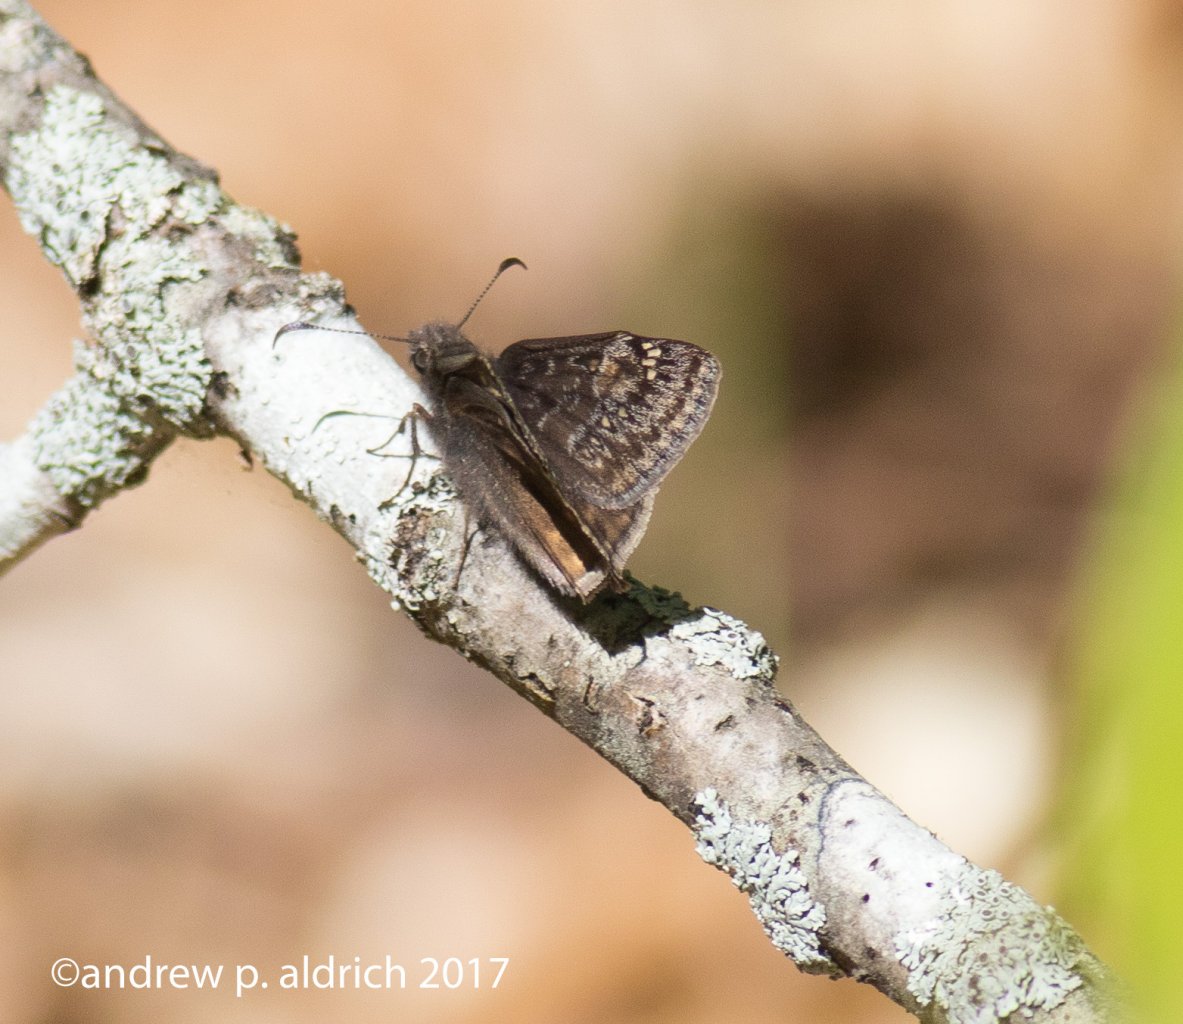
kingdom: Animalia
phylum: Arthropoda
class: Insecta
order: Lepidoptera
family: Hesperiidae
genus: Gesta
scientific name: Gesta
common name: Juvenal's Duskywing
